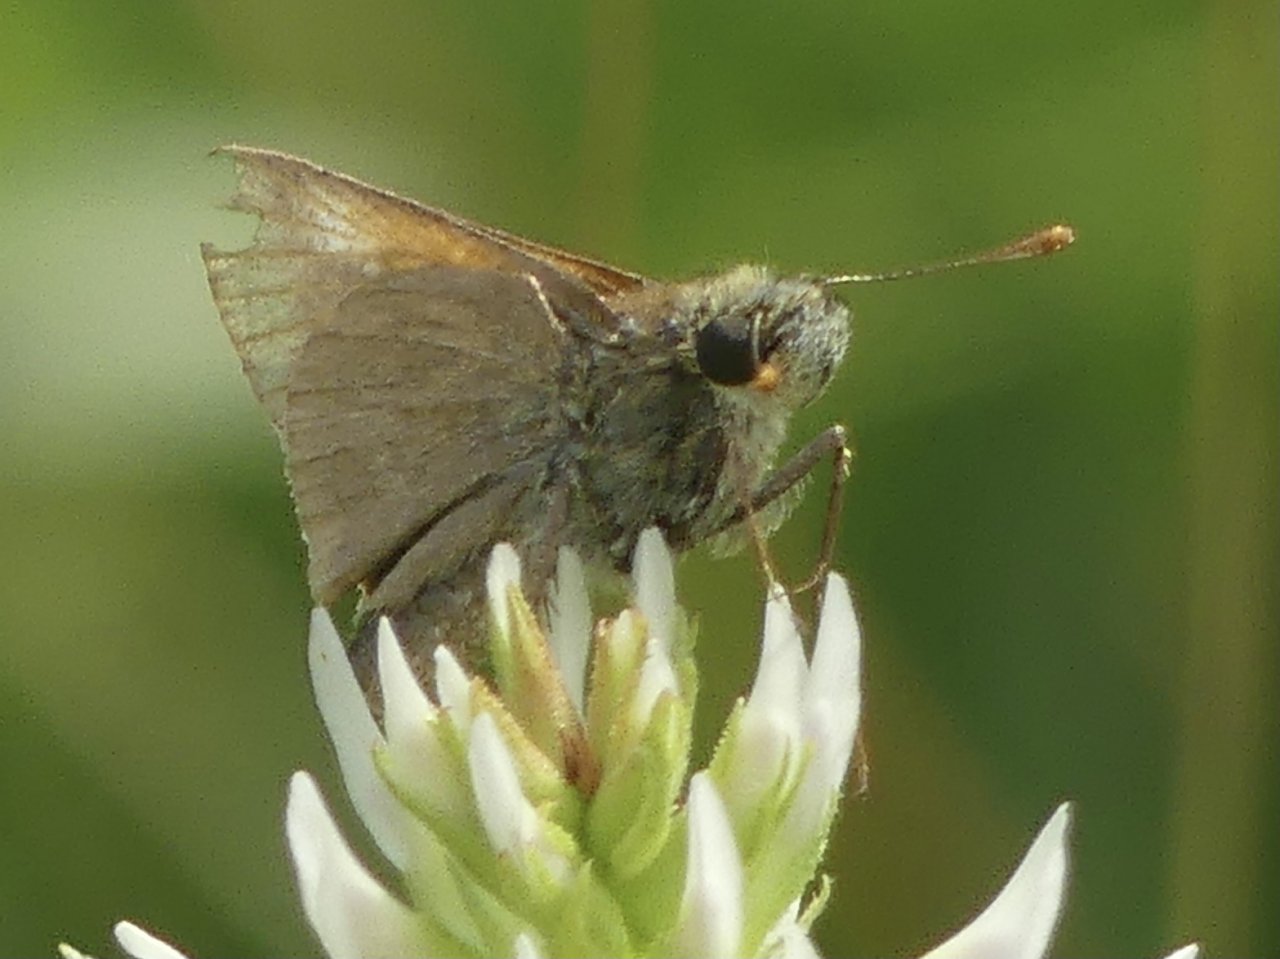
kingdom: Animalia
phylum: Arthropoda
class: Insecta
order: Lepidoptera
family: Hesperiidae
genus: Polites
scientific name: Polites themistocles
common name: Tawny-edged Skipper
